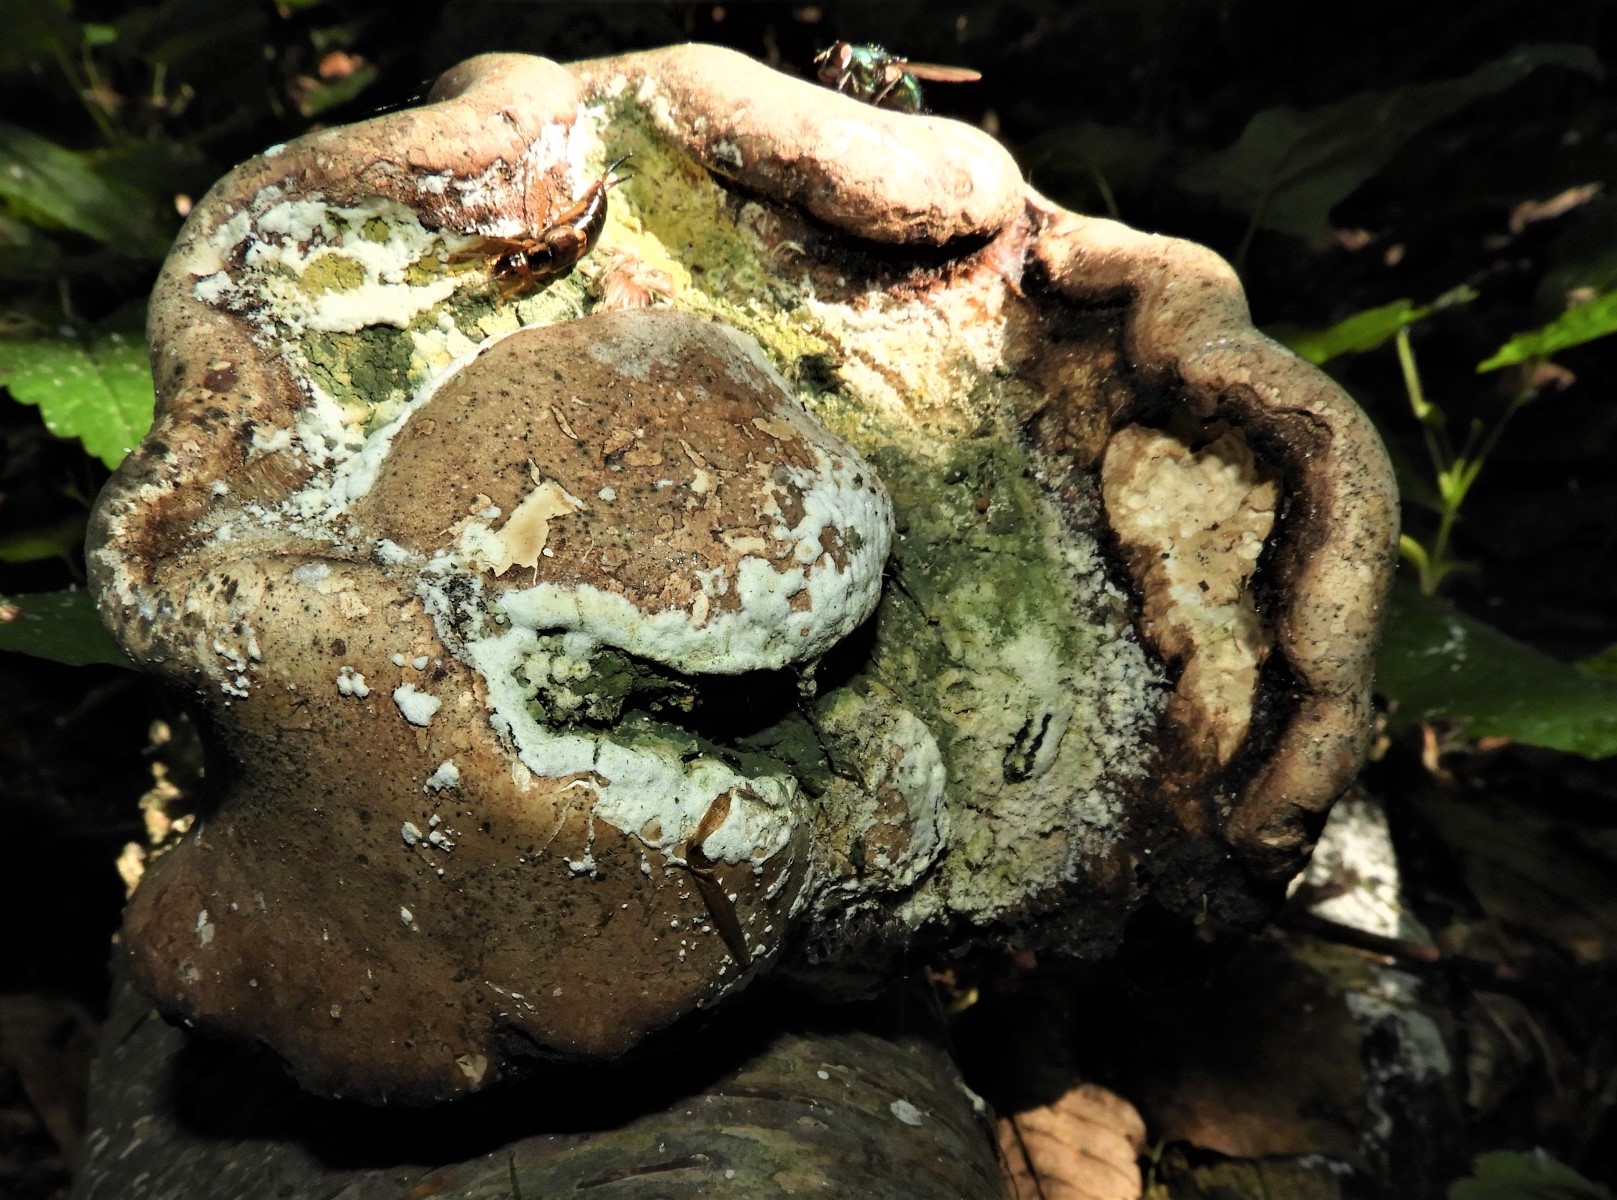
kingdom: Fungi
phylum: Basidiomycota
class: Agaricomycetes
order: Polyporales
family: Fomitopsidaceae
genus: Fomitopsis
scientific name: Fomitopsis betulina
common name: birkeporesvamp
